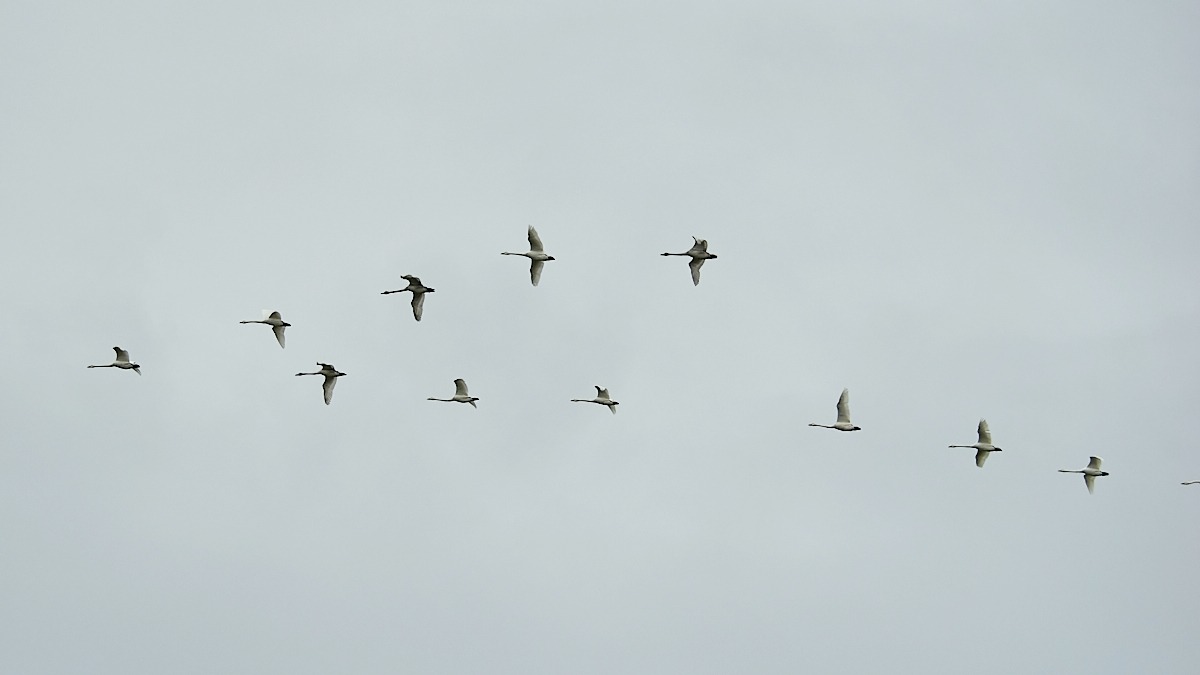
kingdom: Animalia
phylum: Chordata
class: Aves
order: Anseriformes
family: Anatidae
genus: Cygnus
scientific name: Cygnus cygnus
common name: Sangsvane
